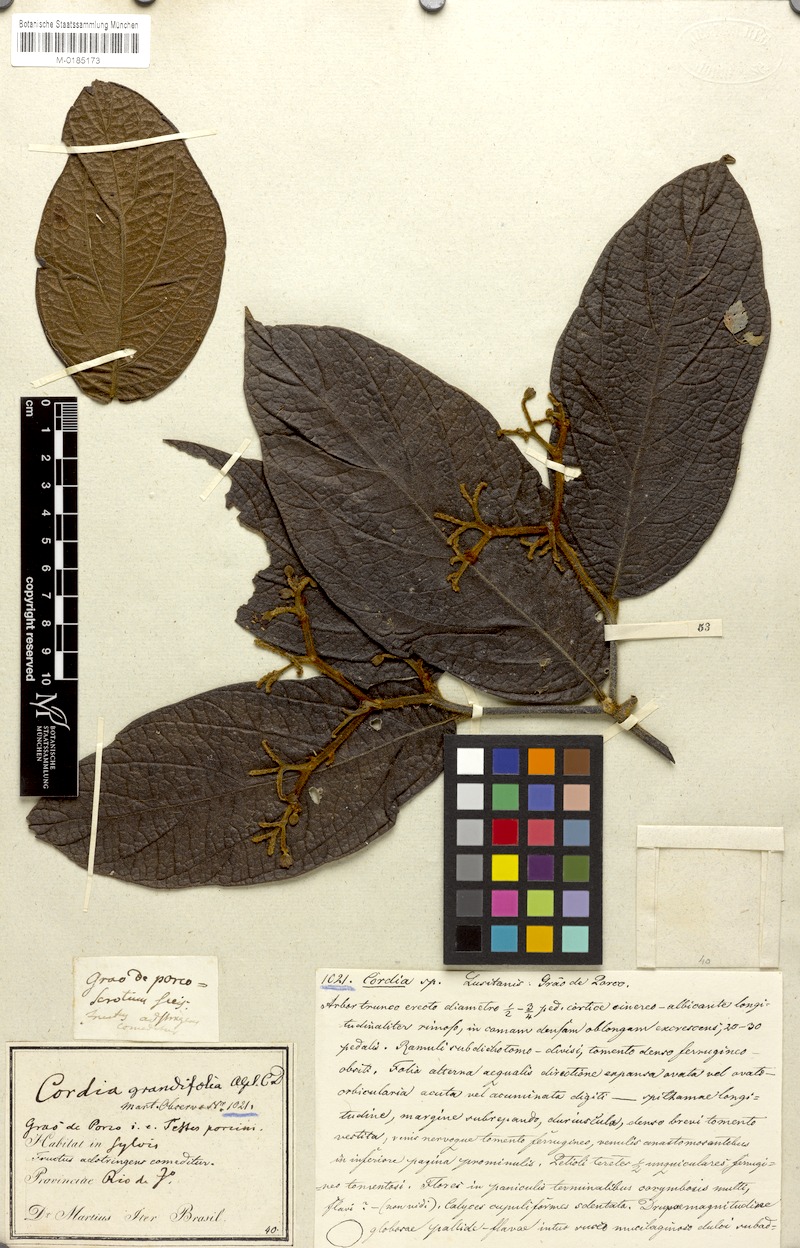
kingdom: Plantae
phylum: Tracheophyta
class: Magnoliopsida
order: Boraginales
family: Cordiaceae
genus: Cordia
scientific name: Cordia trichotoma
